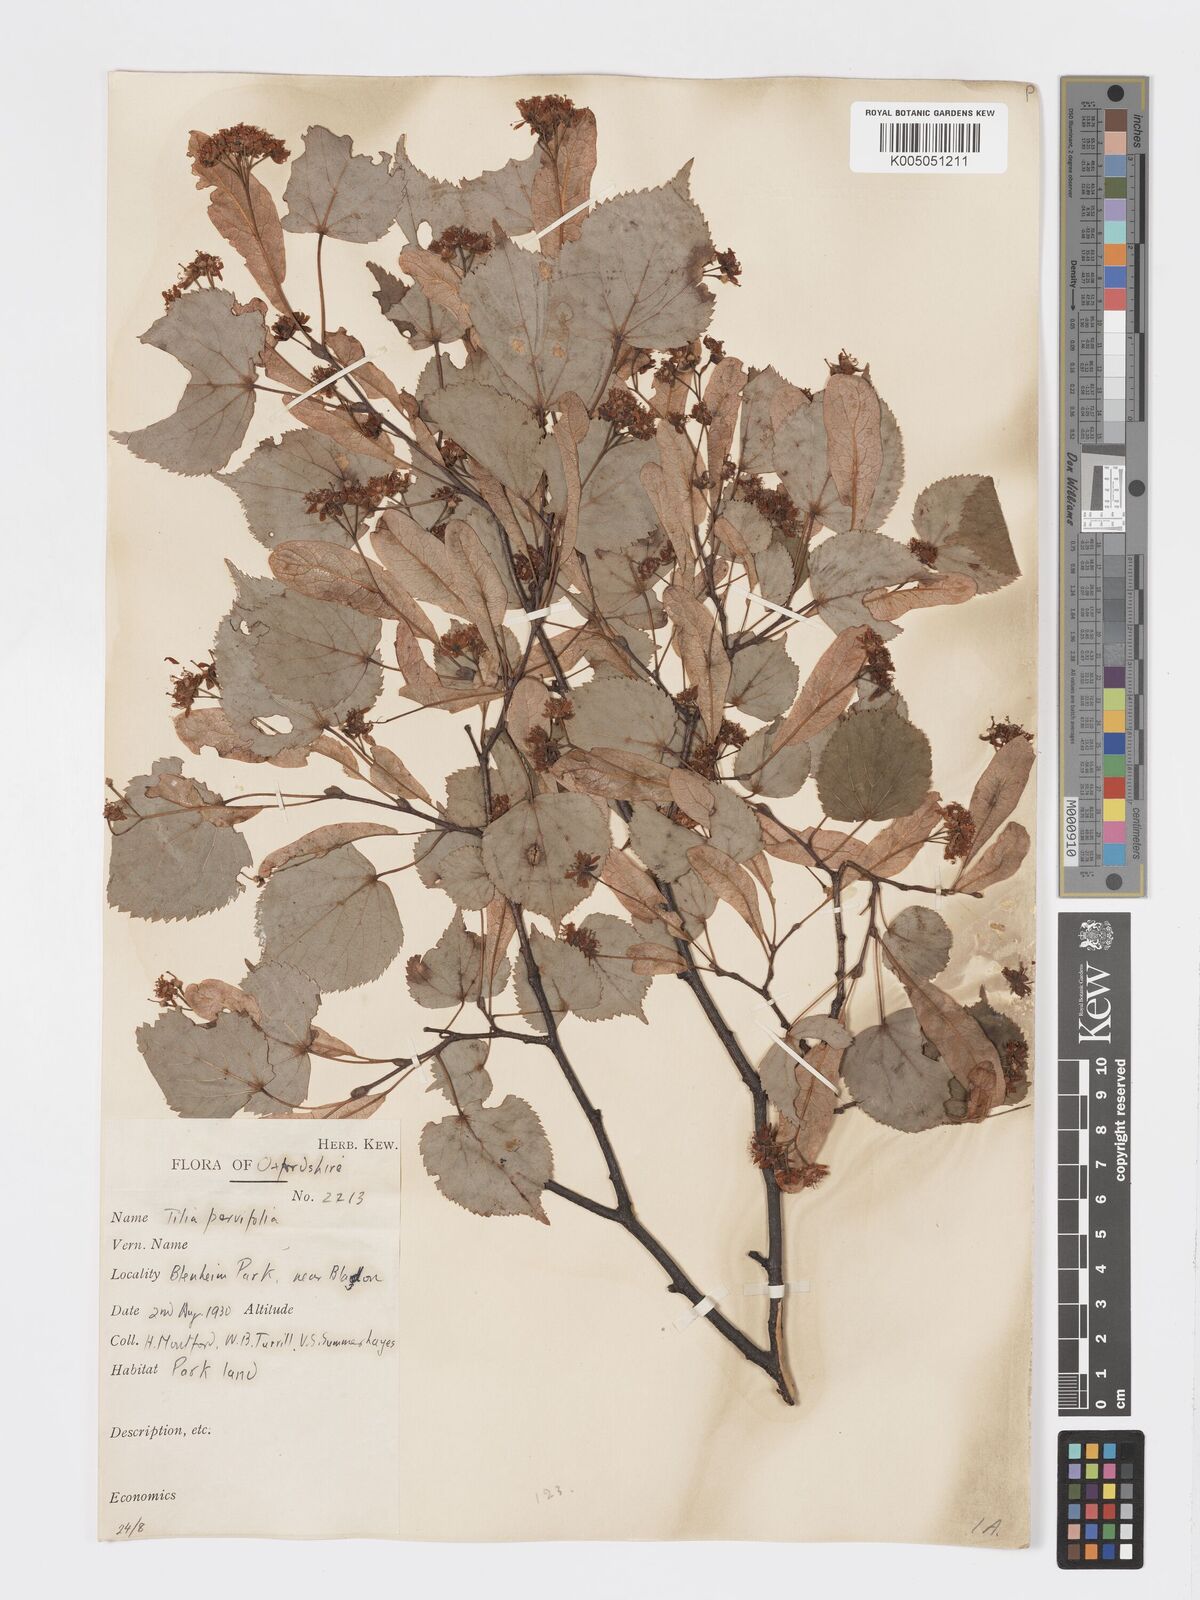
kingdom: Plantae
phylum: Tracheophyta
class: Magnoliopsida
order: Malvales
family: Malvaceae
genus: Tilia
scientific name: Tilia cordata
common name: Small-leaved lime
